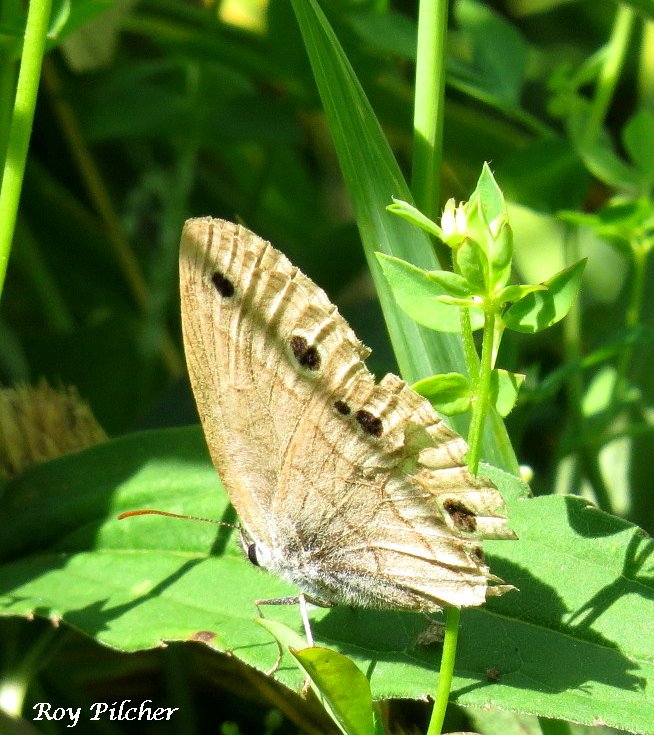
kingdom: Animalia
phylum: Arthropoda
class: Insecta
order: Lepidoptera
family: Nymphalidae
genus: Euptychia
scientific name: Euptychia cymela
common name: Little Wood Satyr
